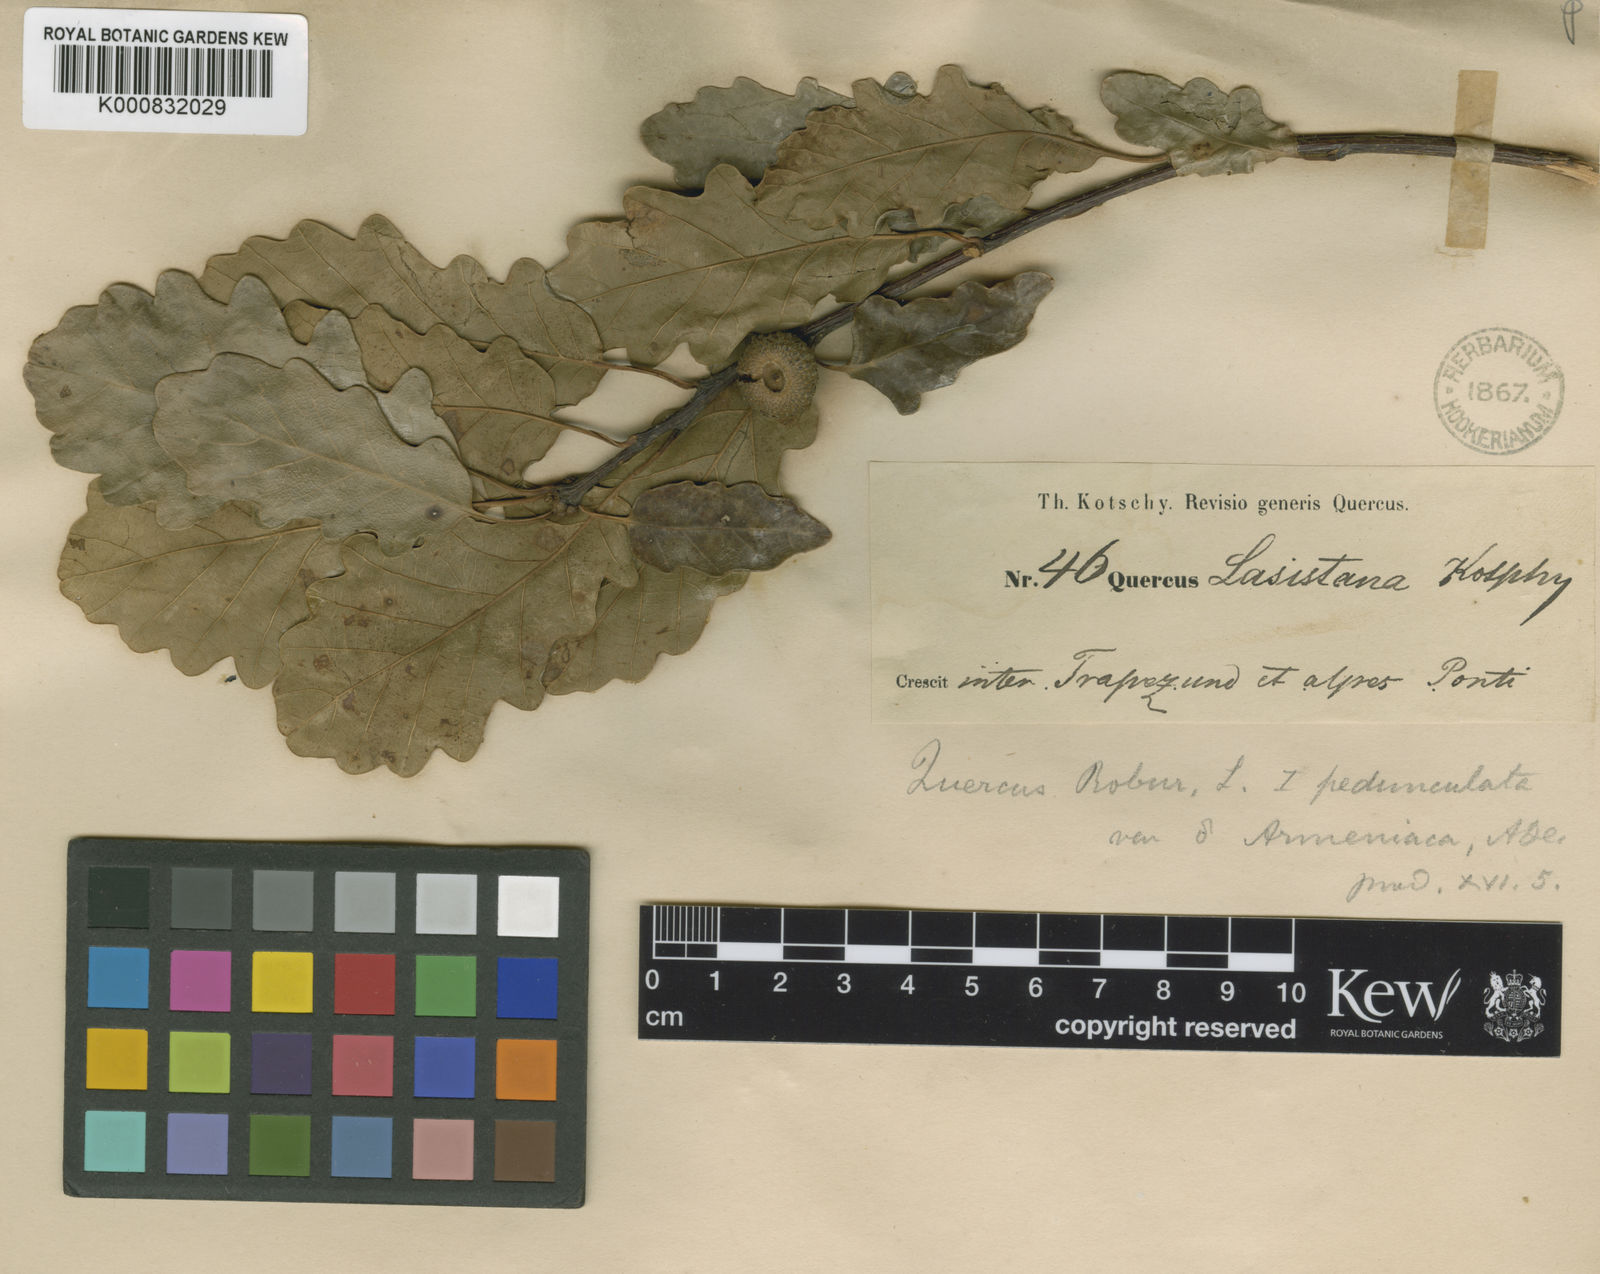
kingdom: Plantae
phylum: Tracheophyta
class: Magnoliopsida
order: Fagales
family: Fagaceae
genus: Quercus
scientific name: Quercus hartwissiana
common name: Strandzha oak
